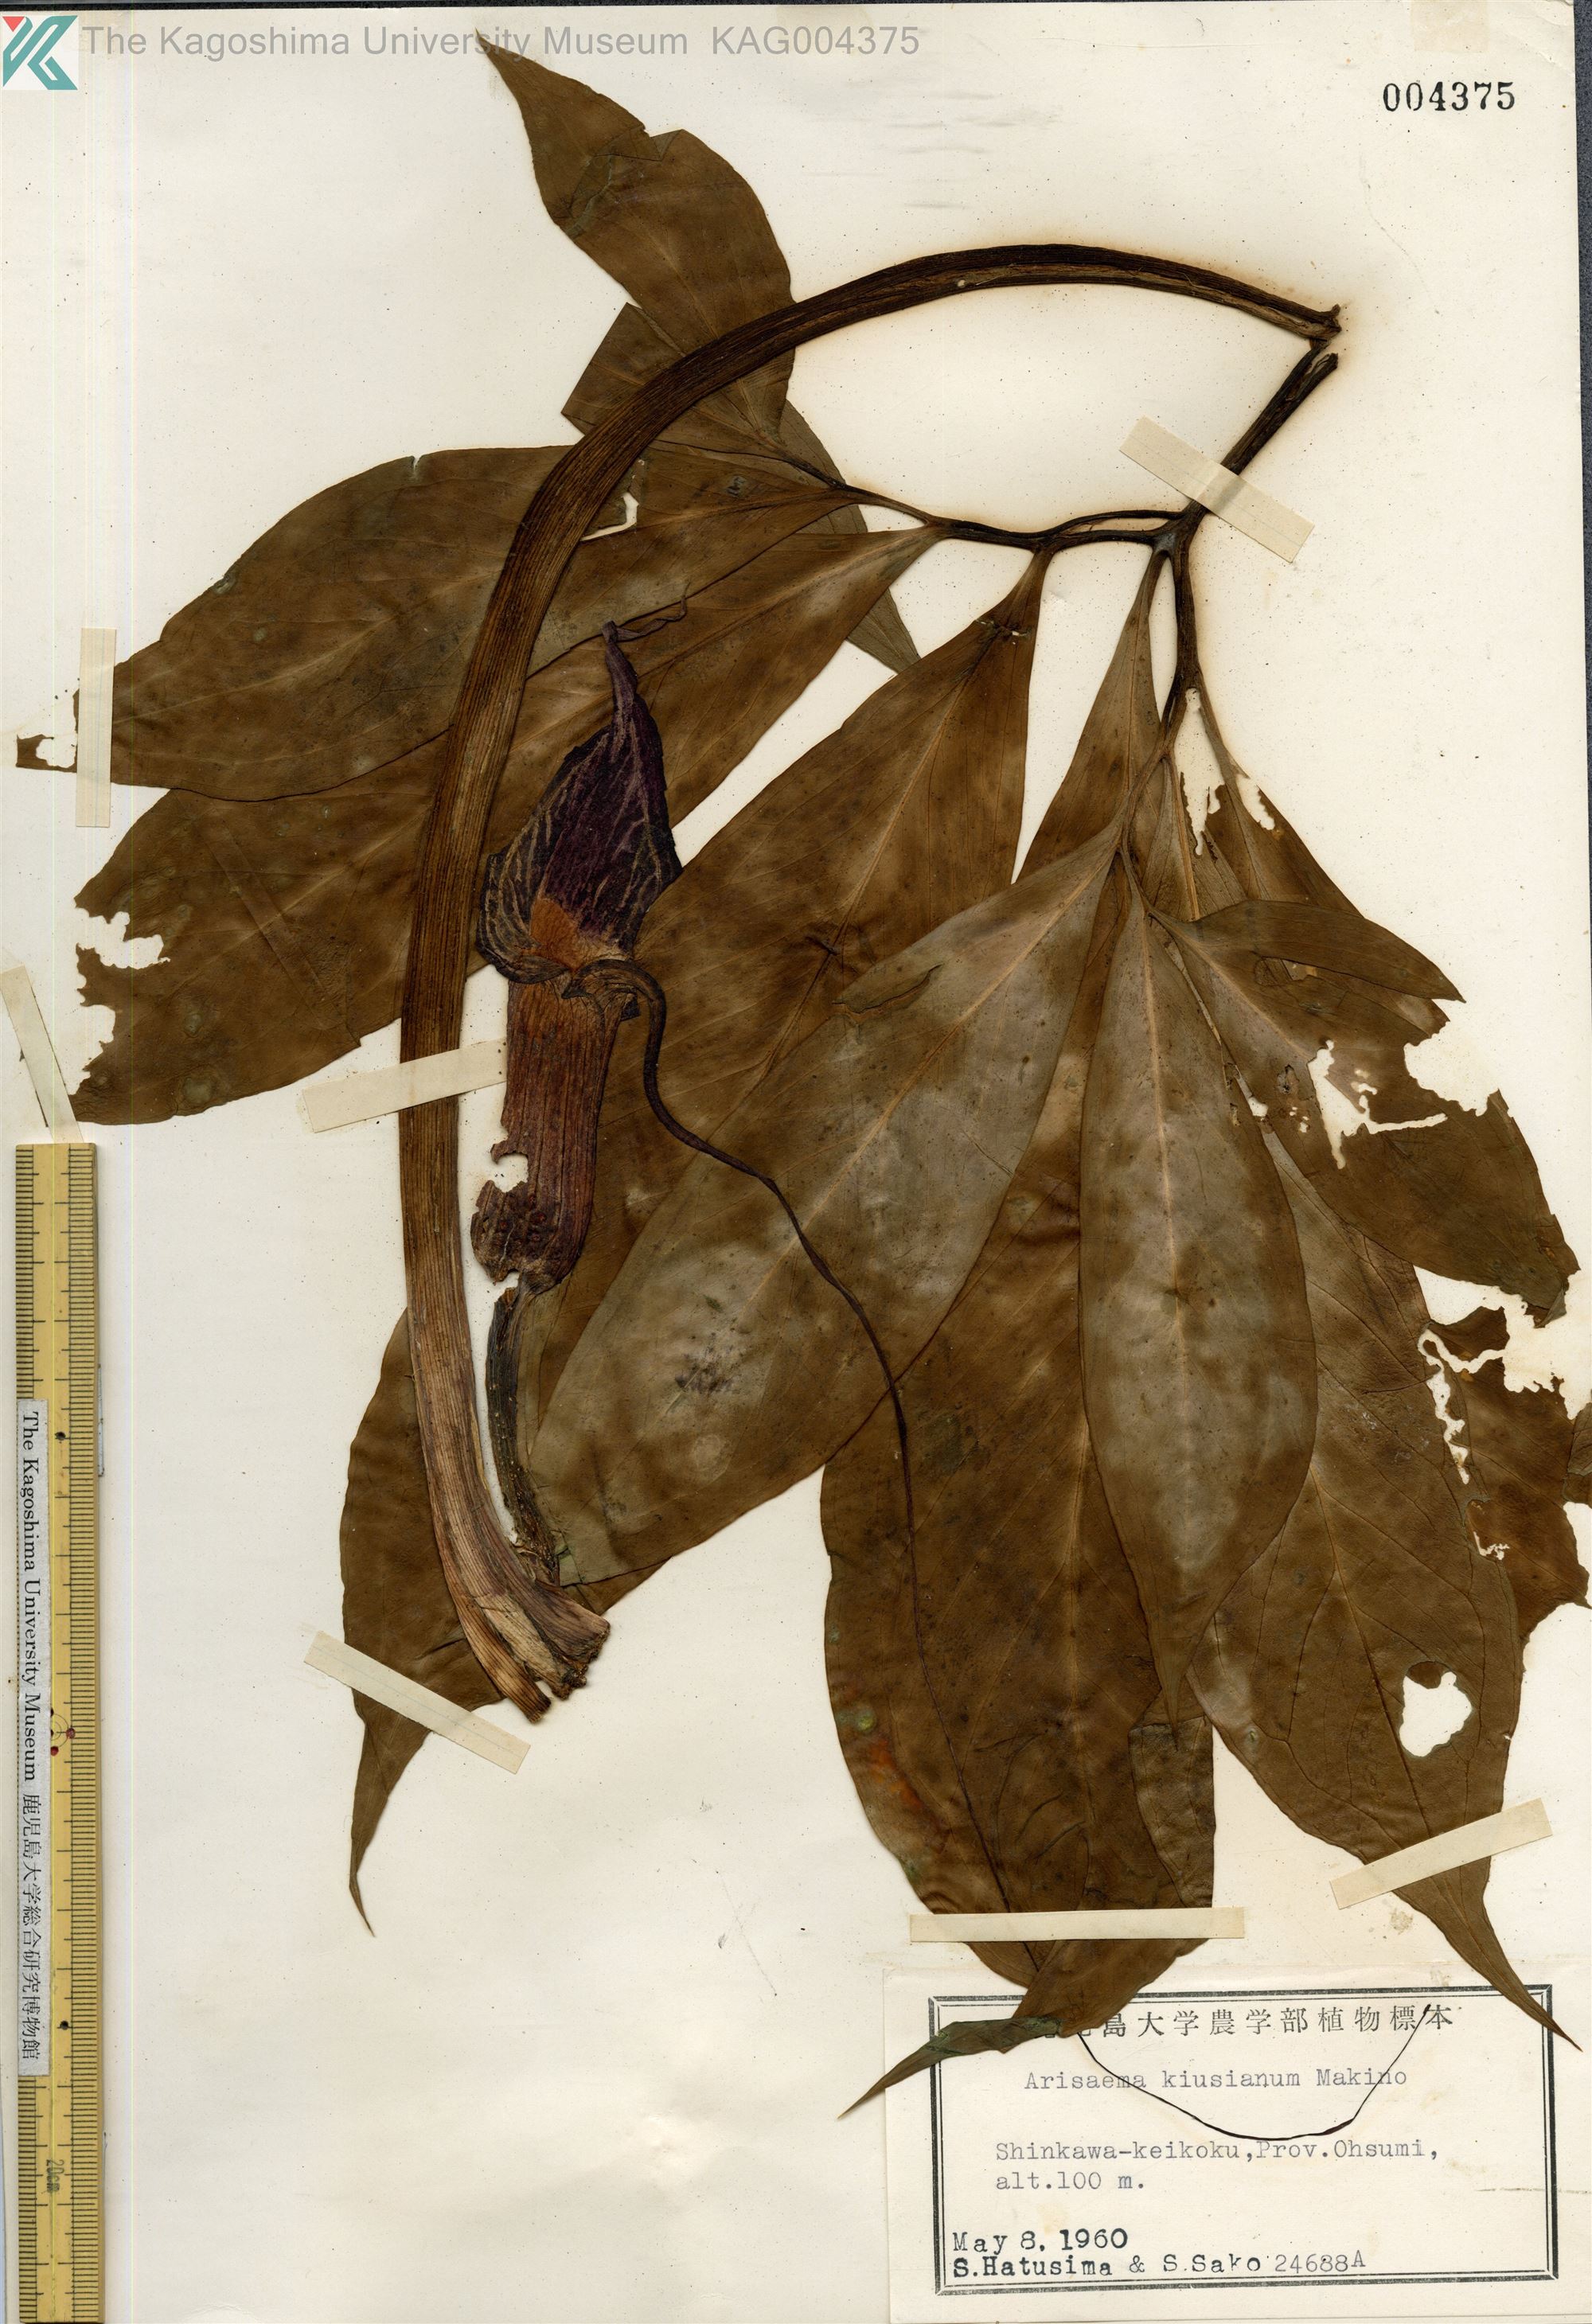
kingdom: Plantae
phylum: Tracheophyta
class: Liliopsida
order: Alismatales
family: Araceae
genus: Arisaema
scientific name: Arisaema kiushianum
